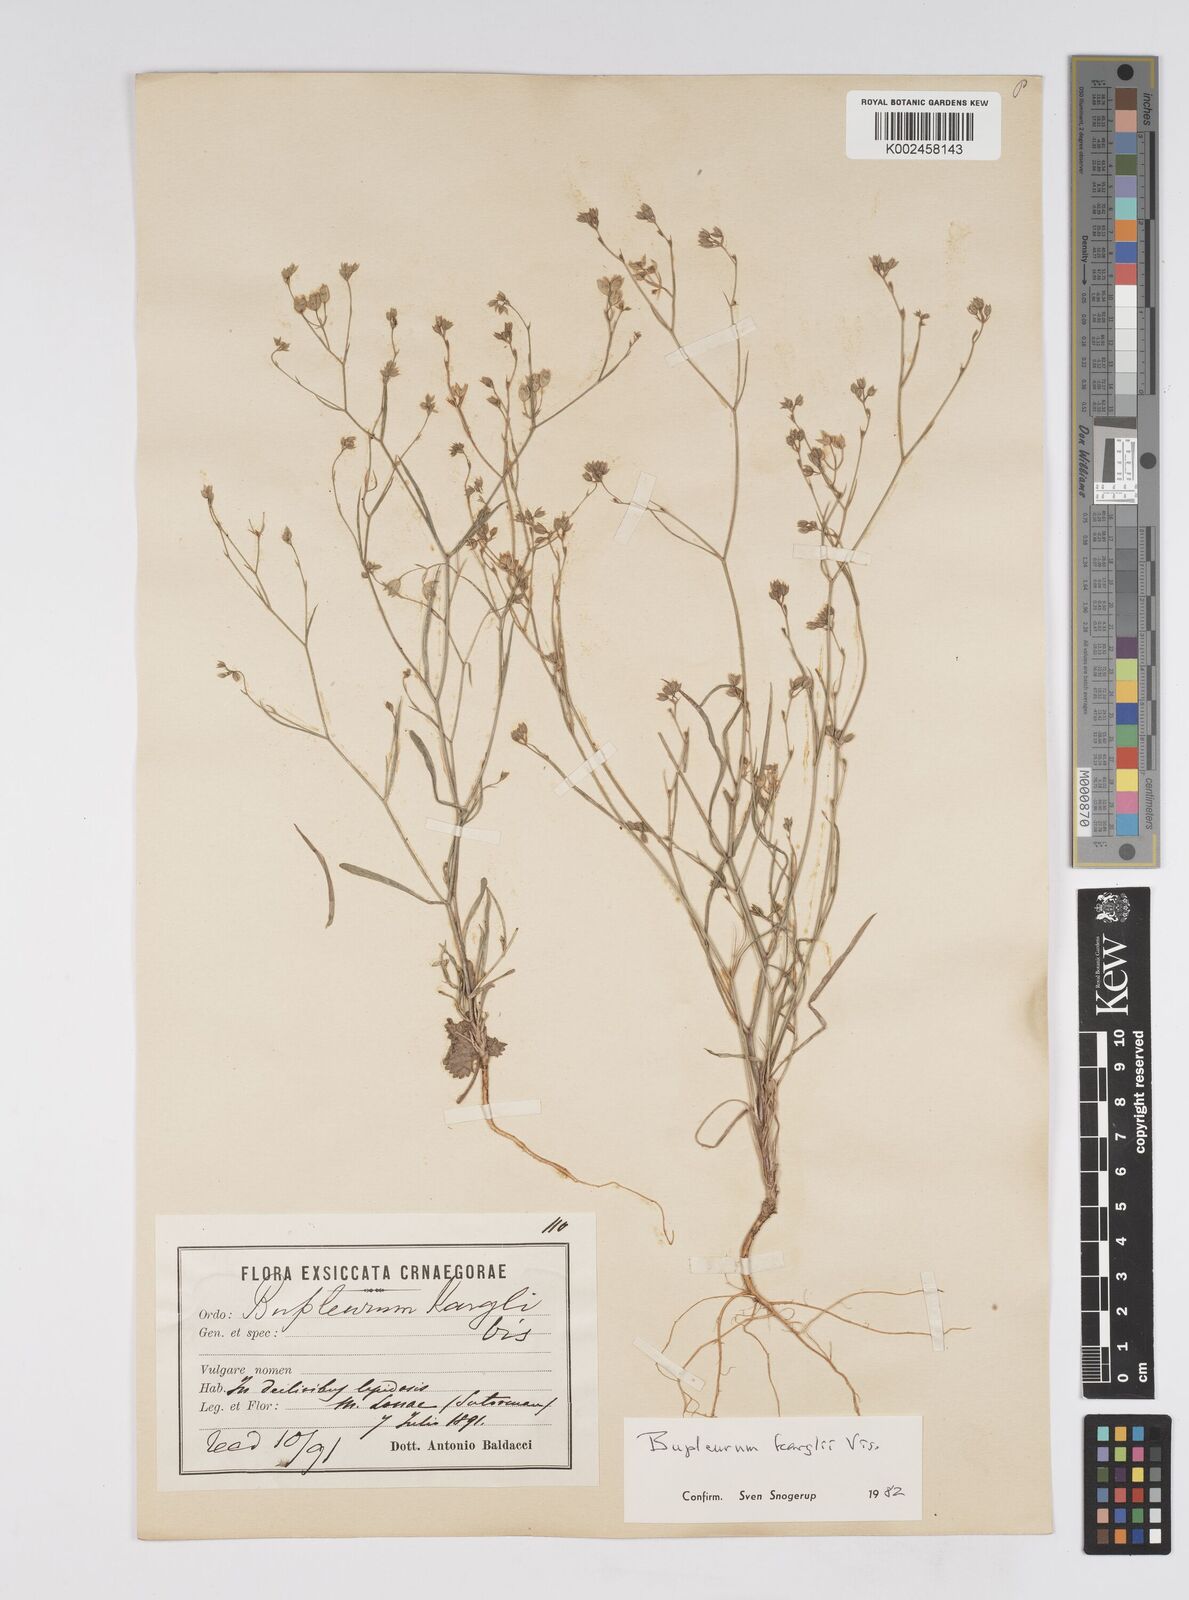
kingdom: Plantae
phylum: Tracheophyta
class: Magnoliopsida
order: Apiales
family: Apiaceae
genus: Bupleurum
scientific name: Bupleurum karglii
